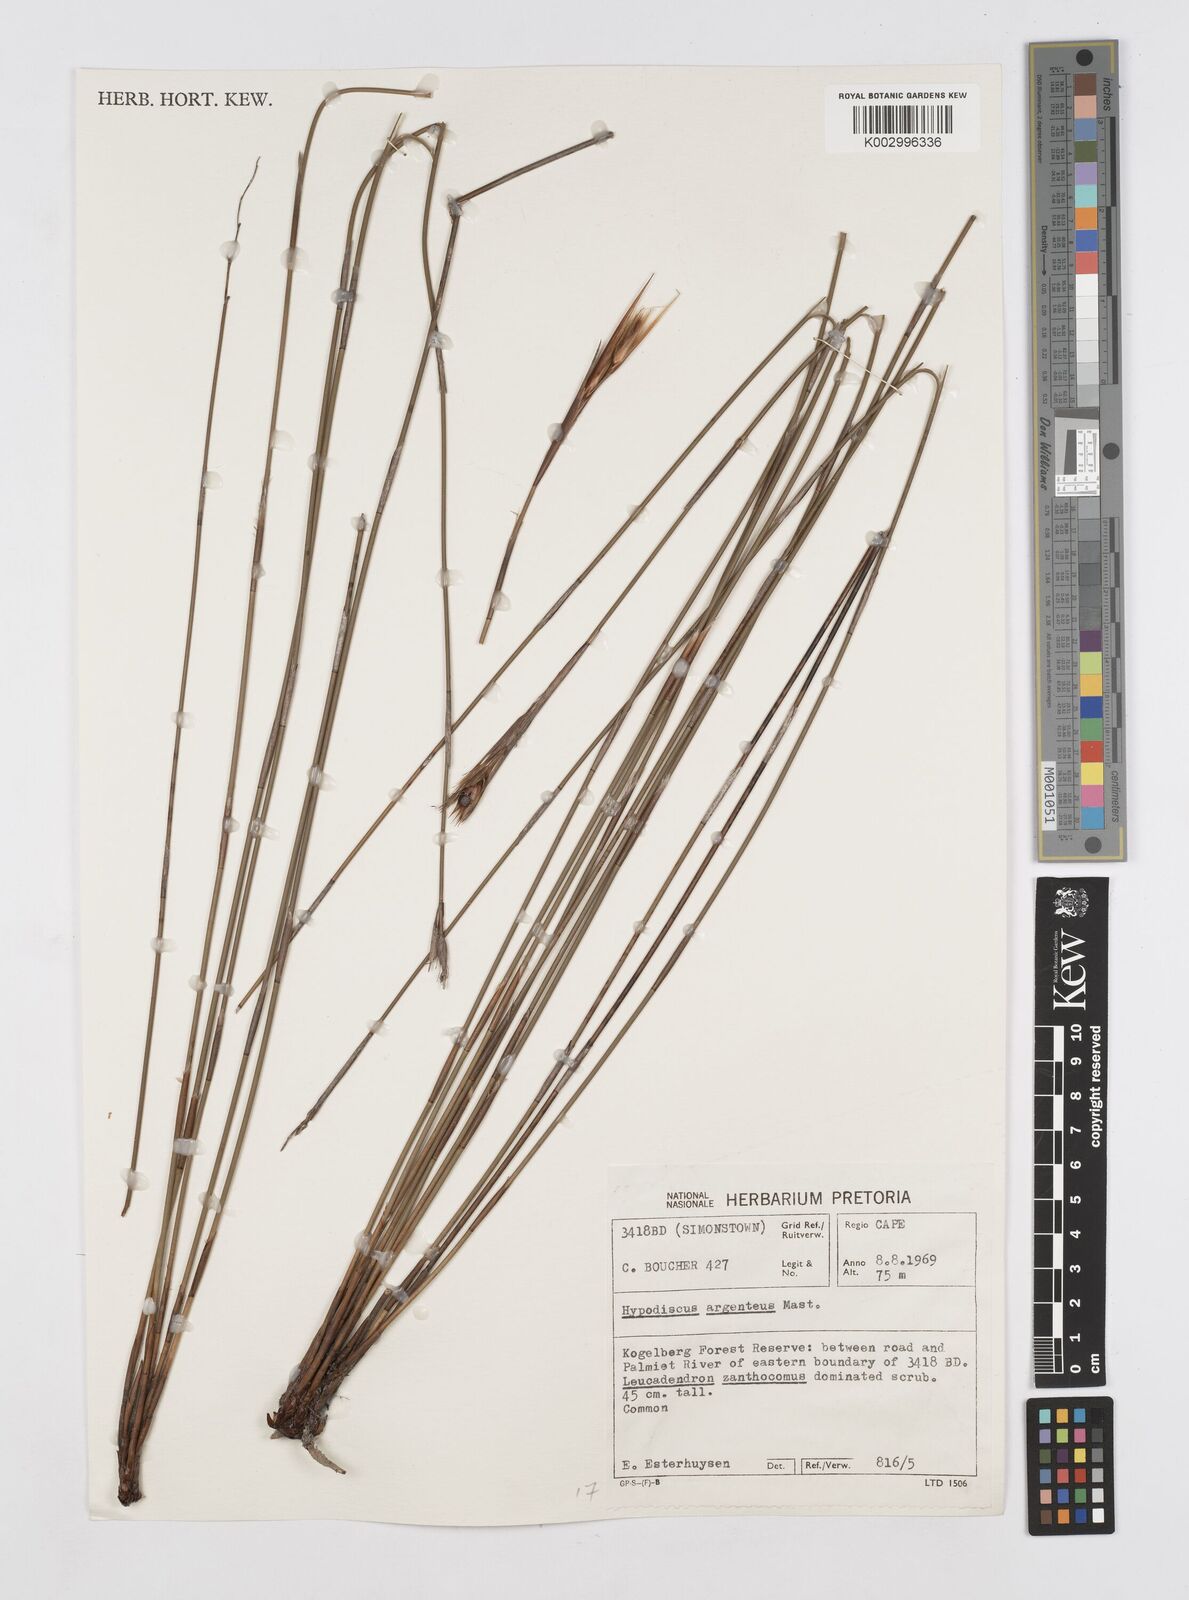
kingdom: Plantae
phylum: Tracheophyta
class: Liliopsida
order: Poales
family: Restionaceae
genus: Hypodiscus
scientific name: Hypodiscus argenteus
